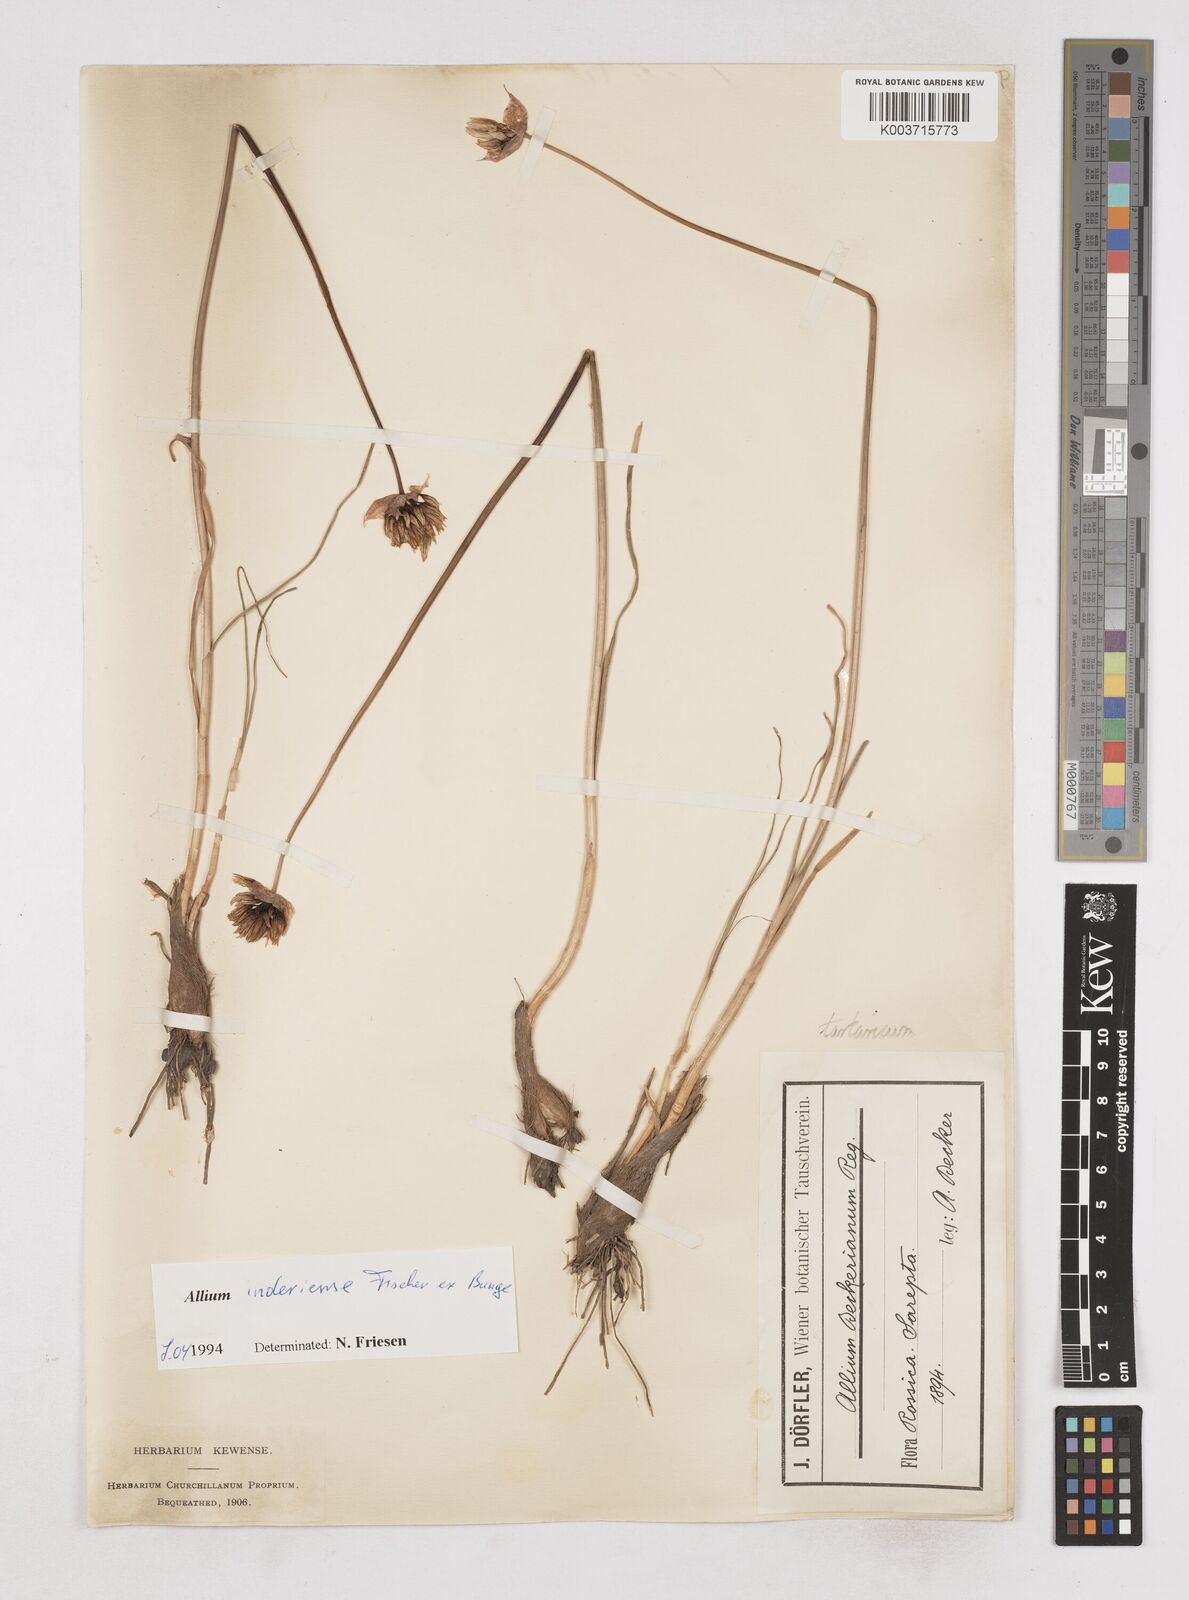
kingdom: Plantae
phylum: Tracheophyta
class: Liliopsida
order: Asparagales
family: Amaryllidaceae
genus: Allium
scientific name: Allium ramosum
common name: Fragrant garlic
